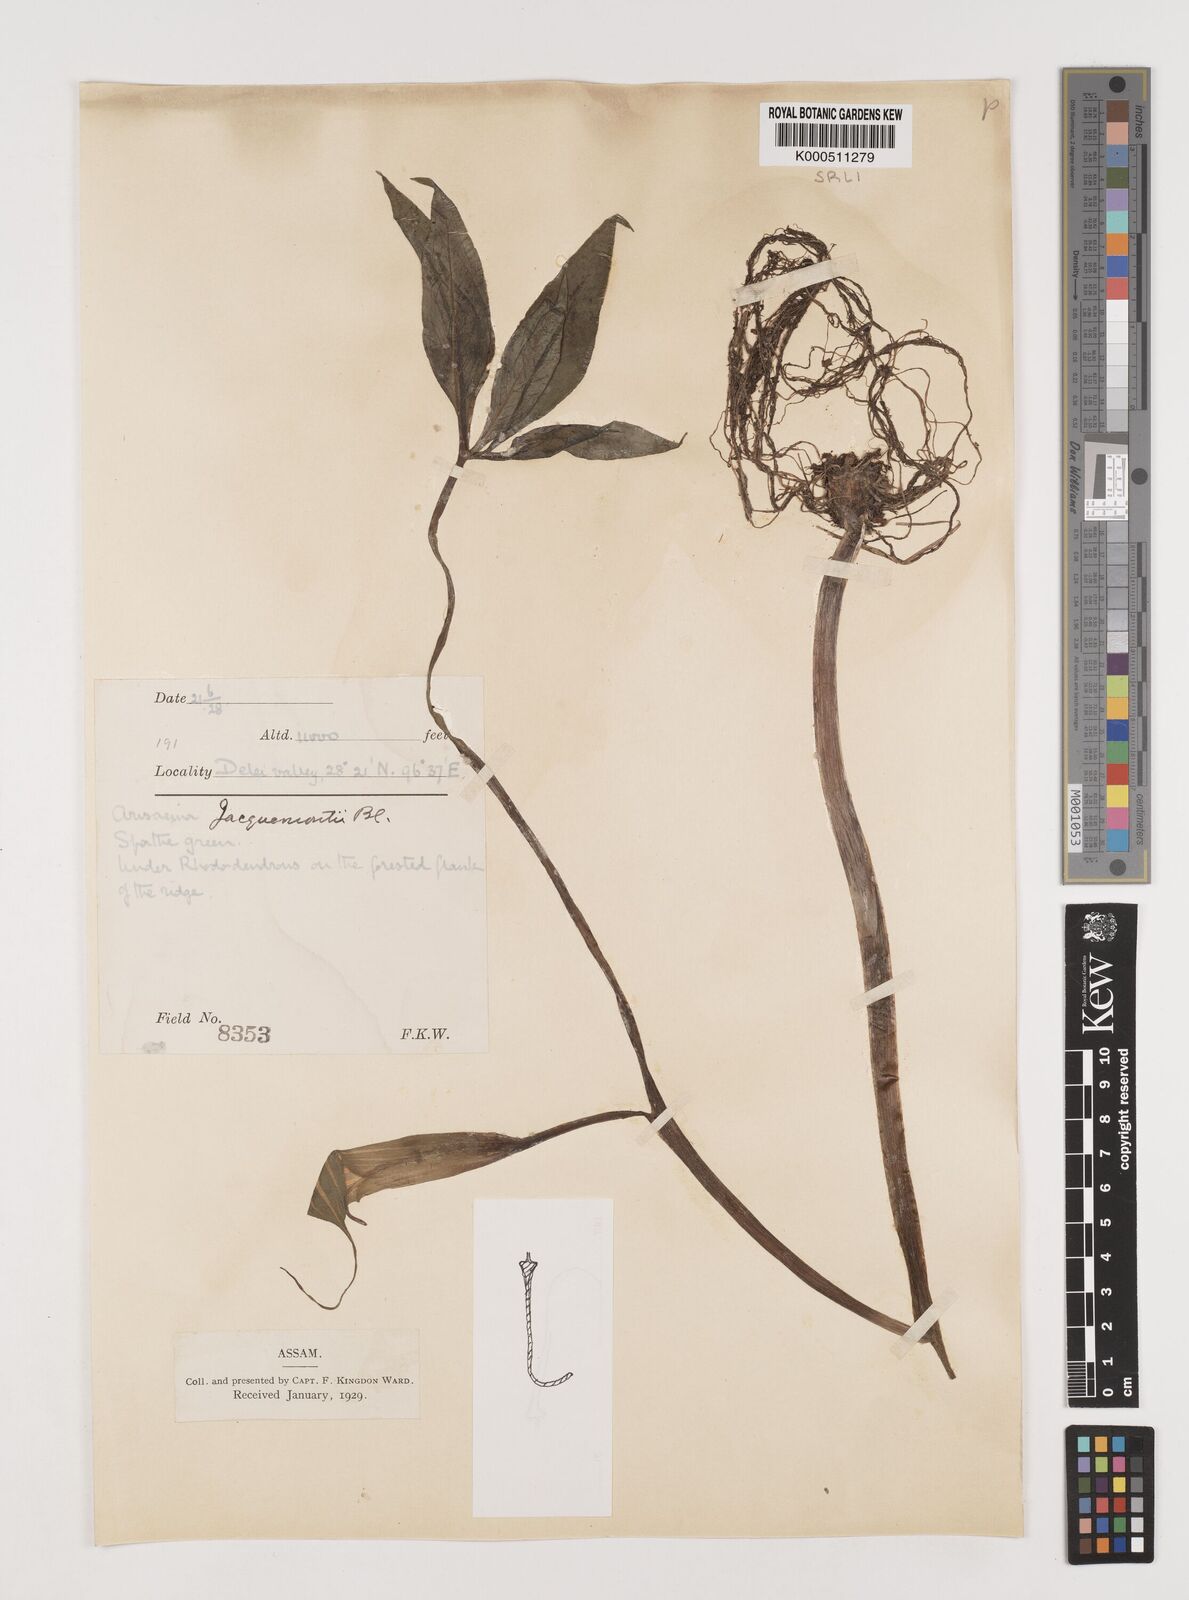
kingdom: Plantae
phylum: Tracheophyta
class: Liliopsida
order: Alismatales
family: Araceae
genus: Arisaema
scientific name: Arisaema jacquemontii
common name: Jacquemont's cobra-lily
